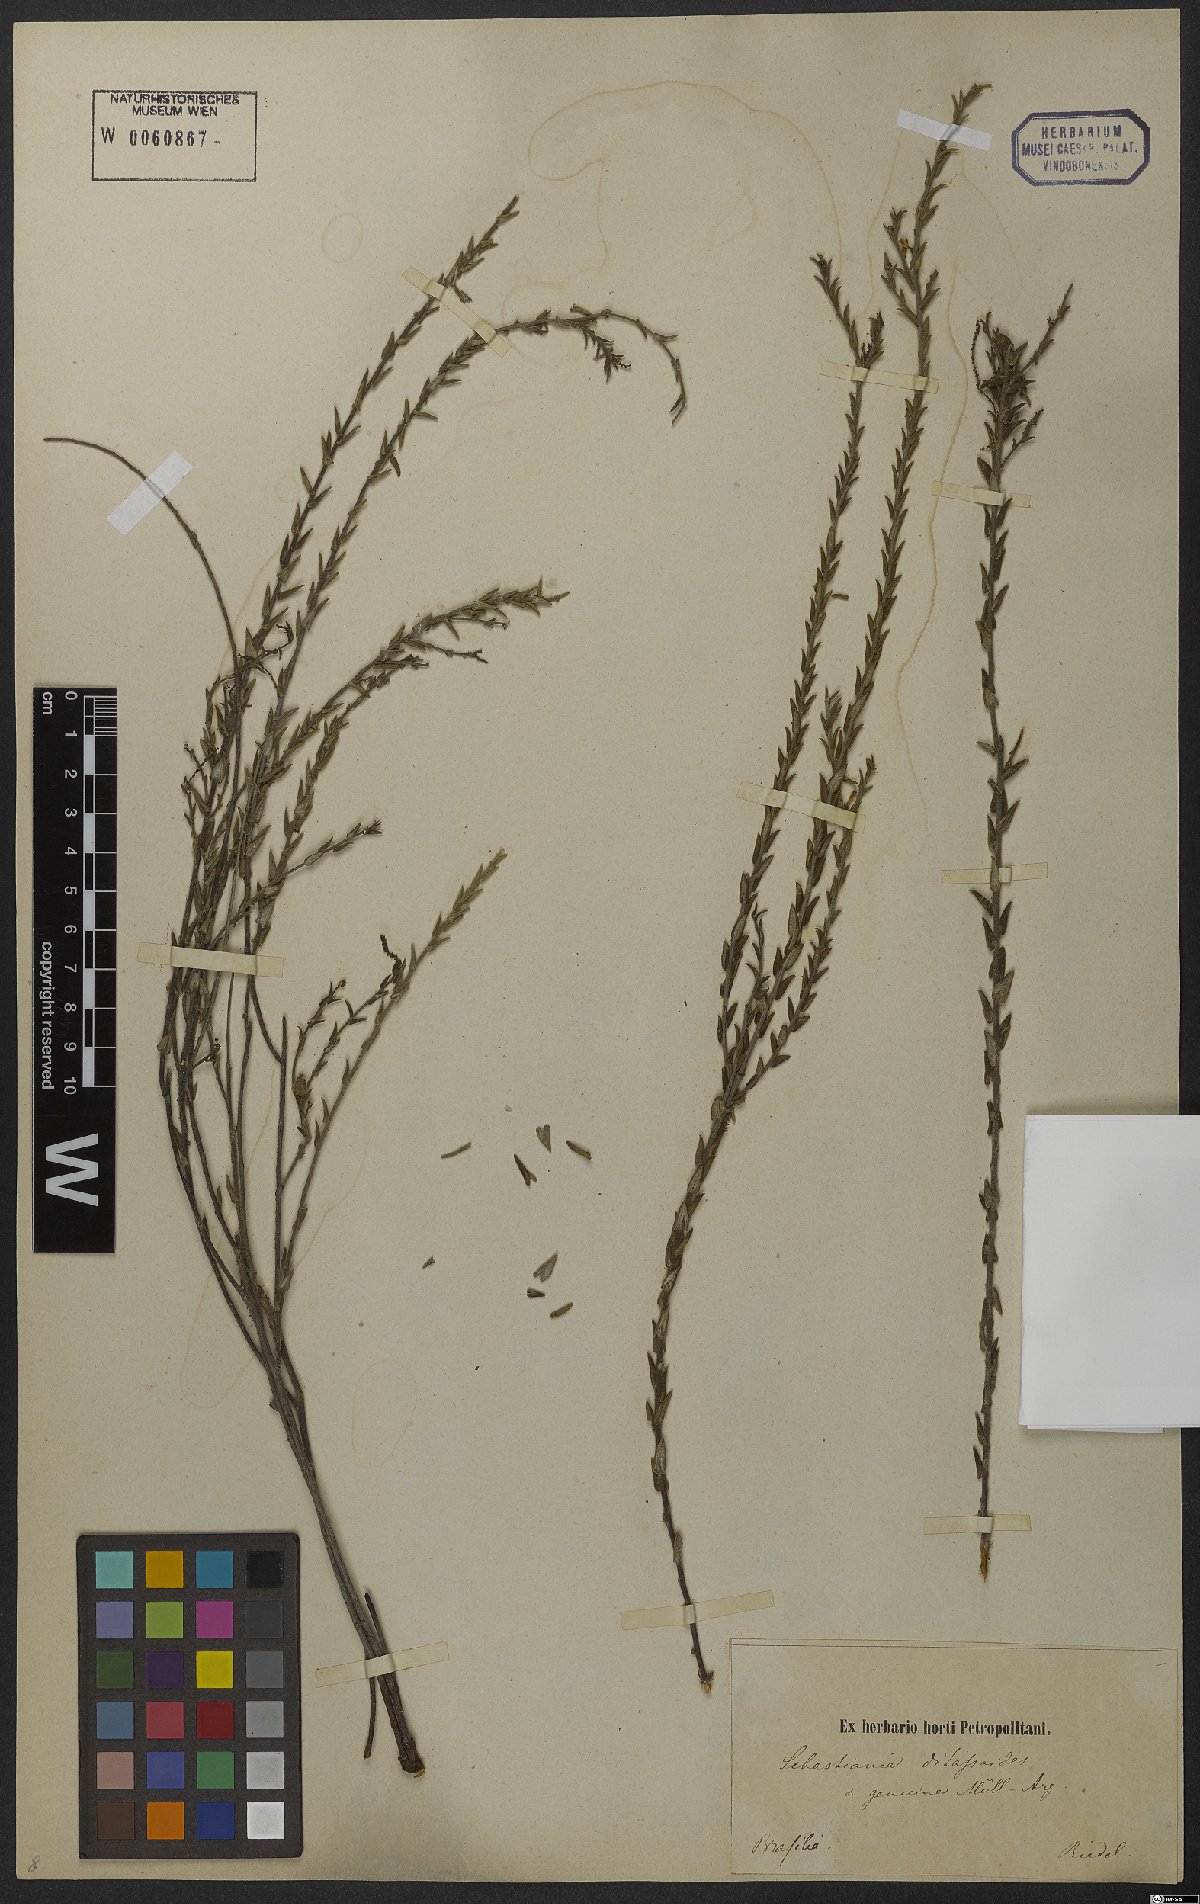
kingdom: Plantae
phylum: Tracheophyta
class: Magnoliopsida
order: Malpighiales
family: Euphorbiaceae
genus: Microstachys
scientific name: Microstachys ditassoides
